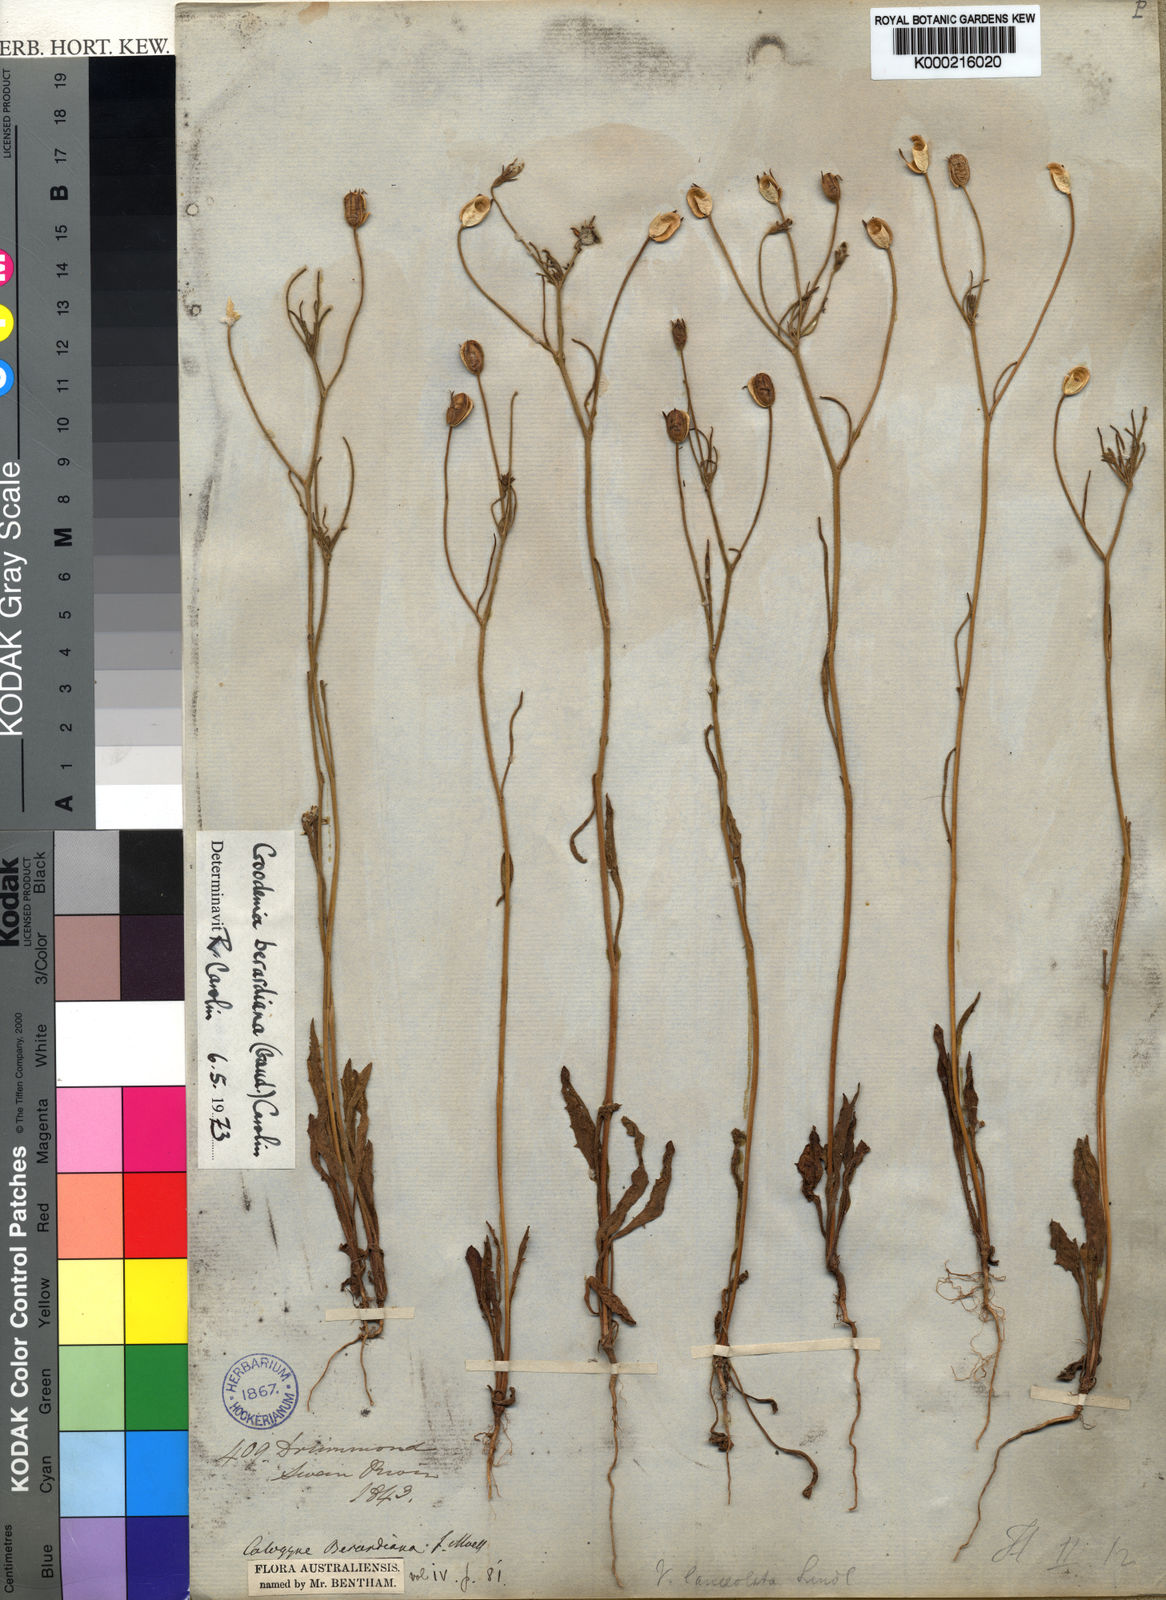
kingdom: Plantae
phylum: Tracheophyta
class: Magnoliopsida
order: Asterales
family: Goodeniaceae
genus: Goodenia
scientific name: Goodenia berardiana
